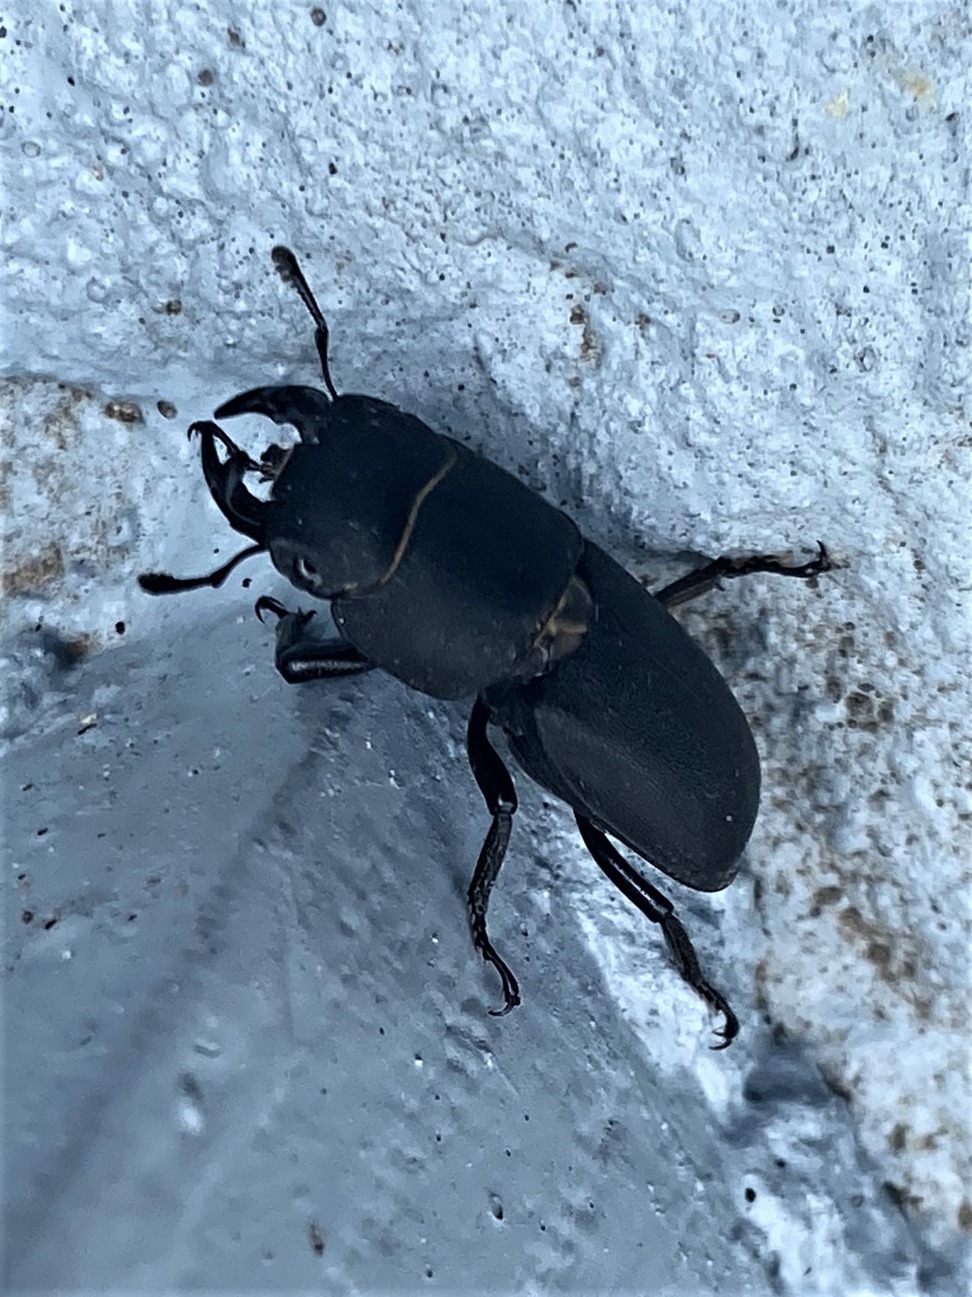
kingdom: Animalia
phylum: Arthropoda
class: Insecta
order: Coleoptera
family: Lucanidae
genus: Dorcus
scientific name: Dorcus parallelipipedus
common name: Bøghjort
